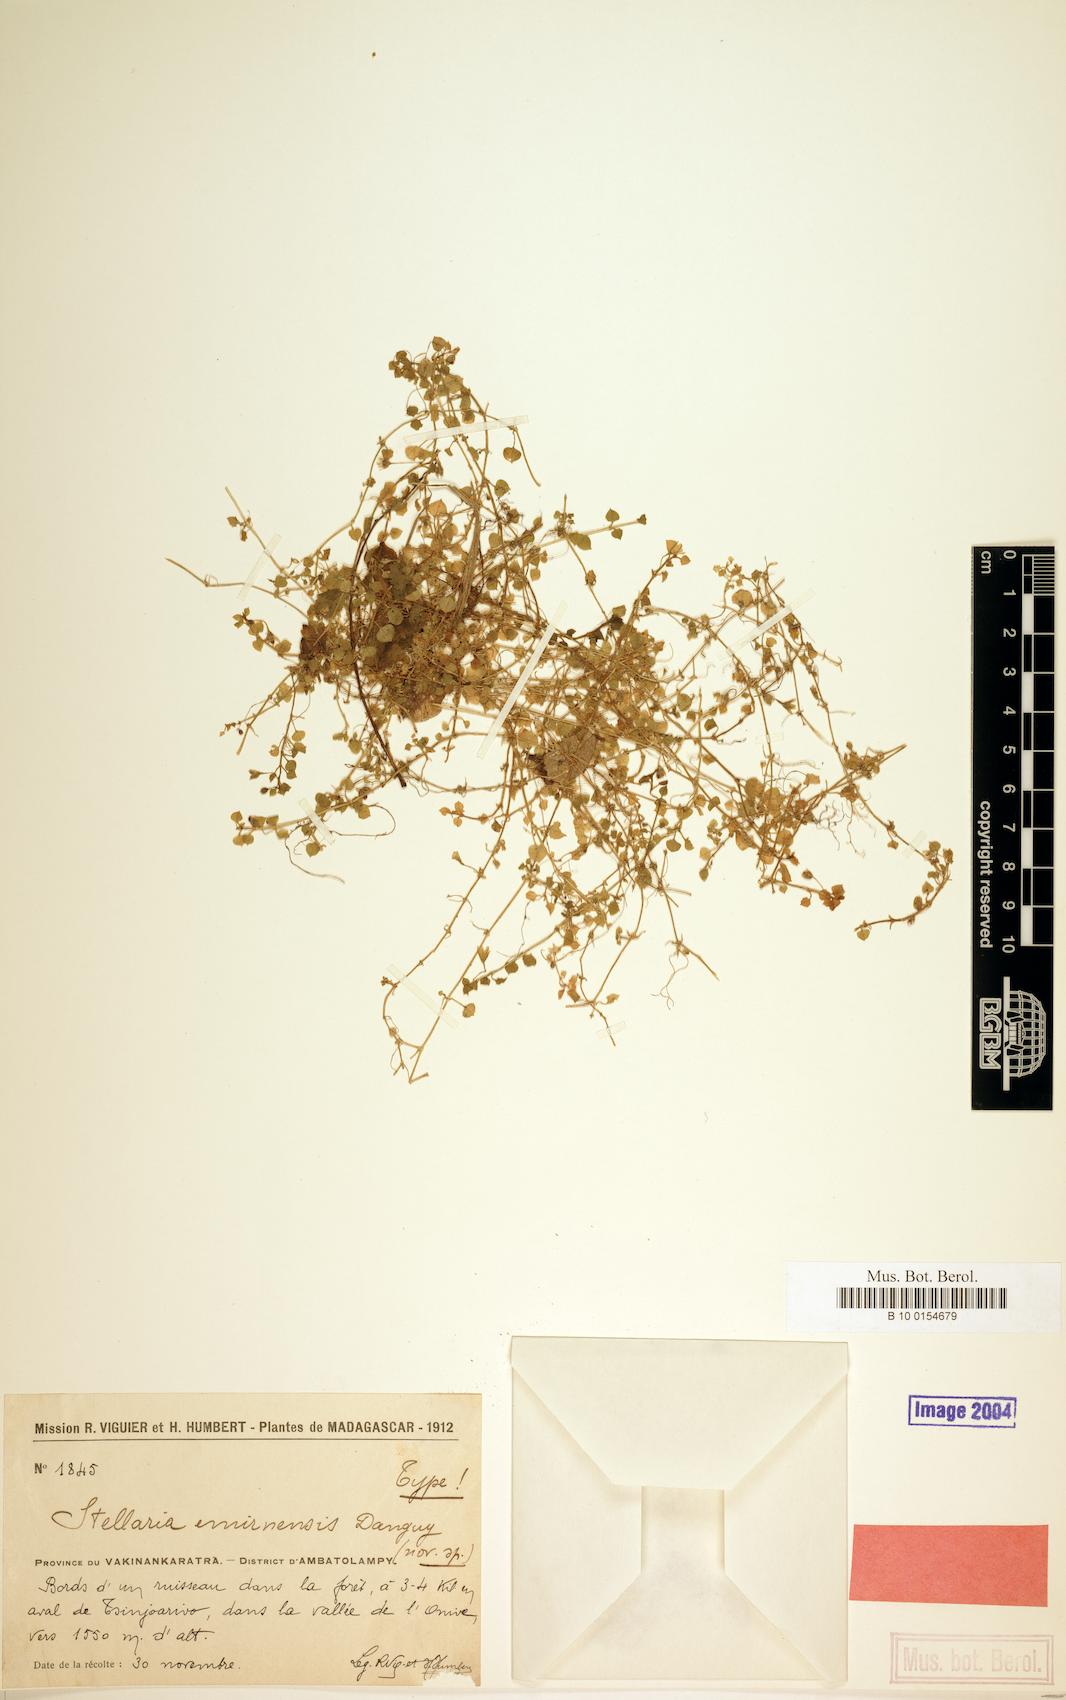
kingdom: Plantae
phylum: Tracheophyta
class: Magnoliopsida
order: Caryophyllales
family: Caryophyllaceae
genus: Stellaria
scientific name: Stellaria emirnensis
